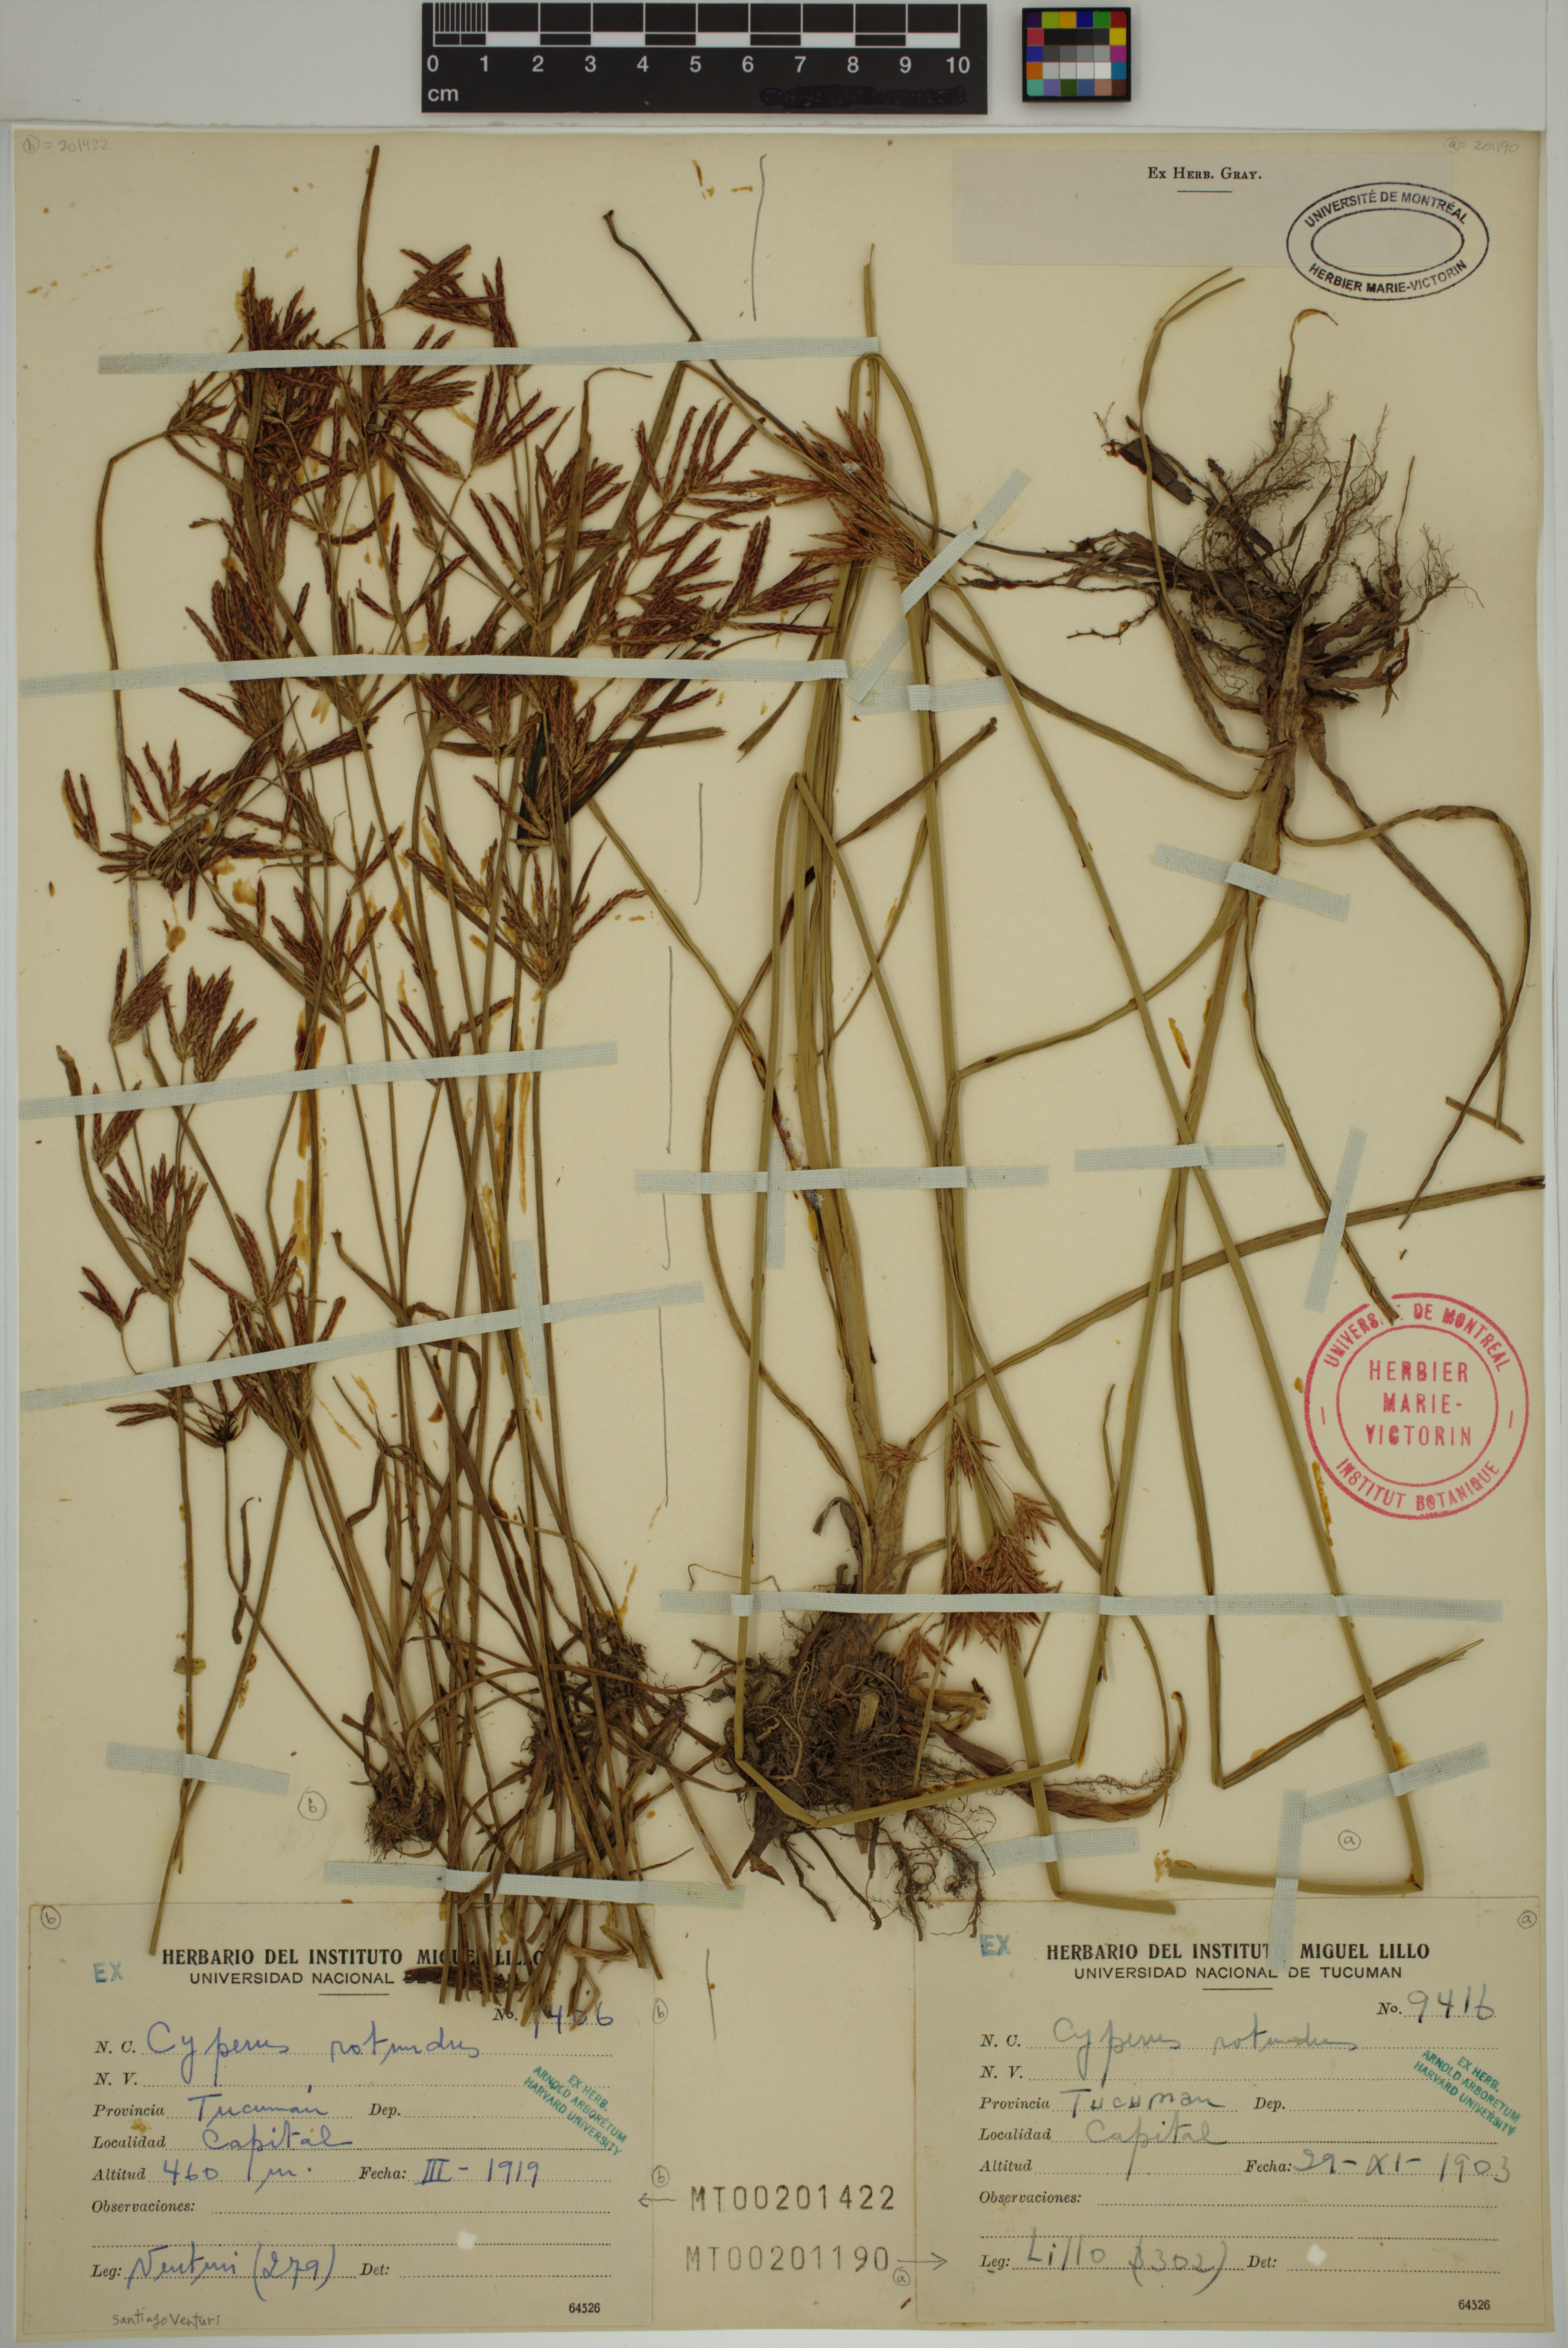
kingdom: Plantae
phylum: Tracheophyta
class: Liliopsida
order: Poales
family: Cyperaceae
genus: Cyperus
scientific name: Cyperus rotundus
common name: Nutgrass
